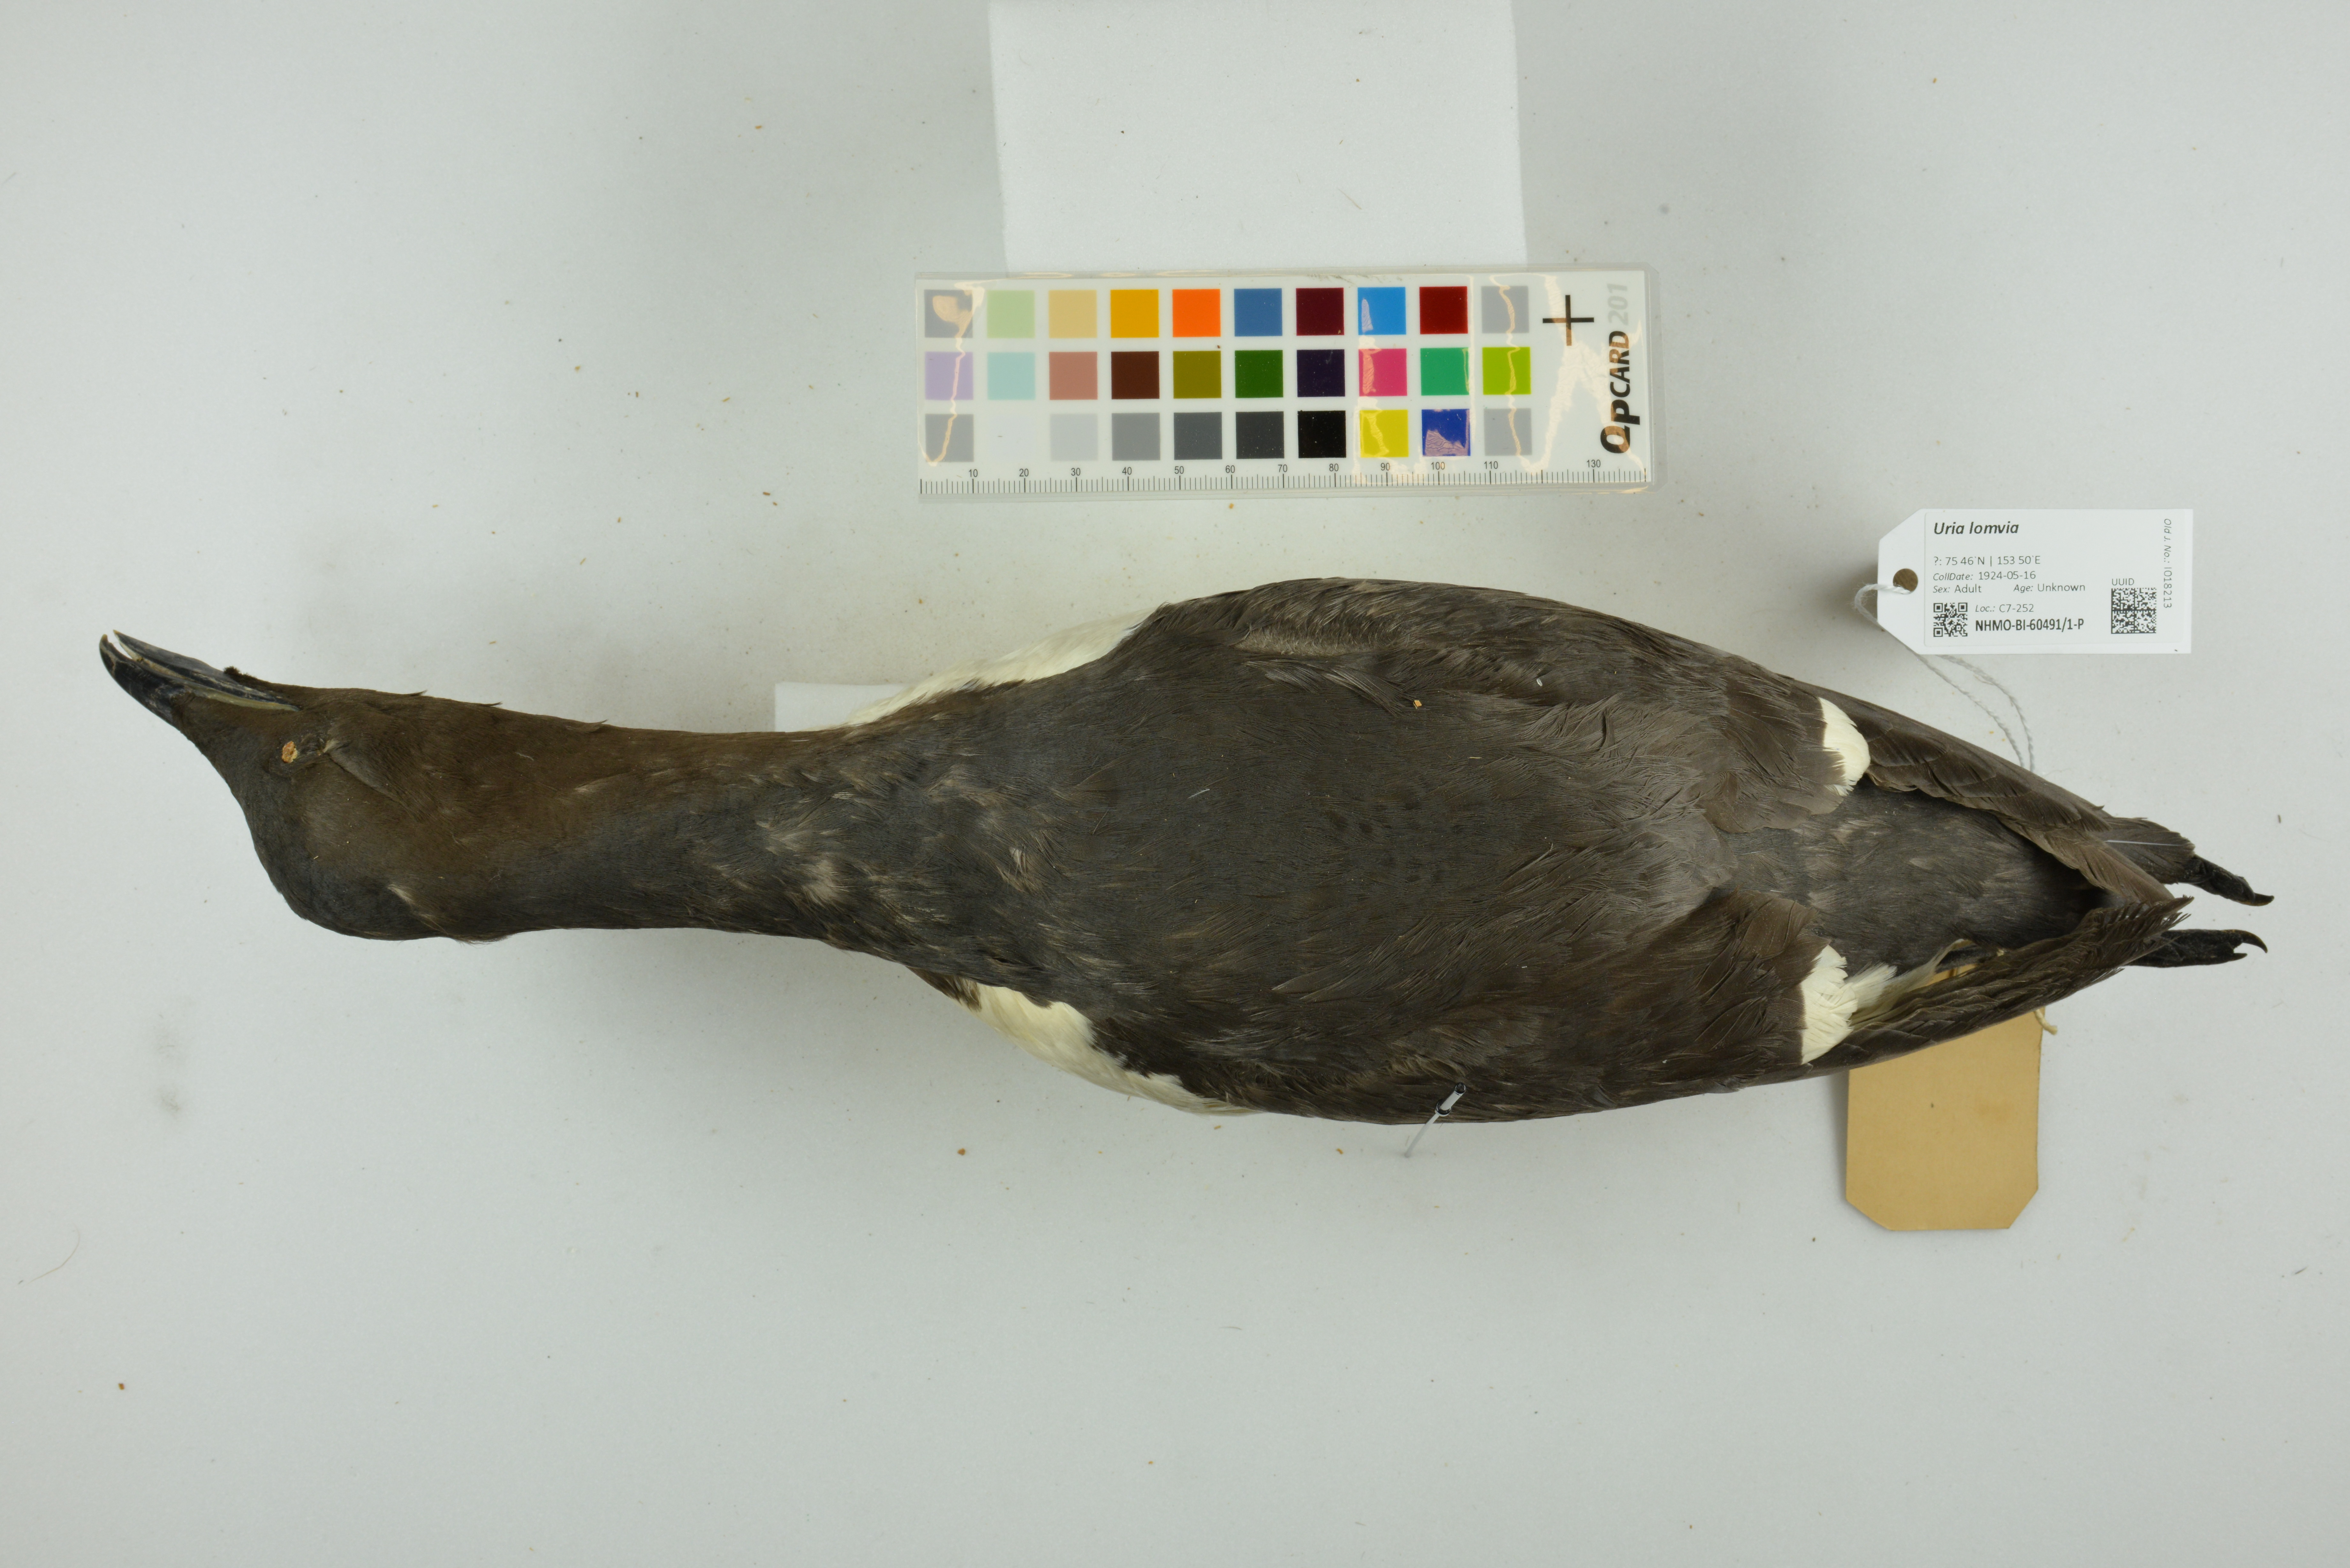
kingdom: Animalia
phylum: Chordata
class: Aves
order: Charadriiformes
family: Alcidae
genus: Uria
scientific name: Uria lomvia
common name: Thick-billed murre
